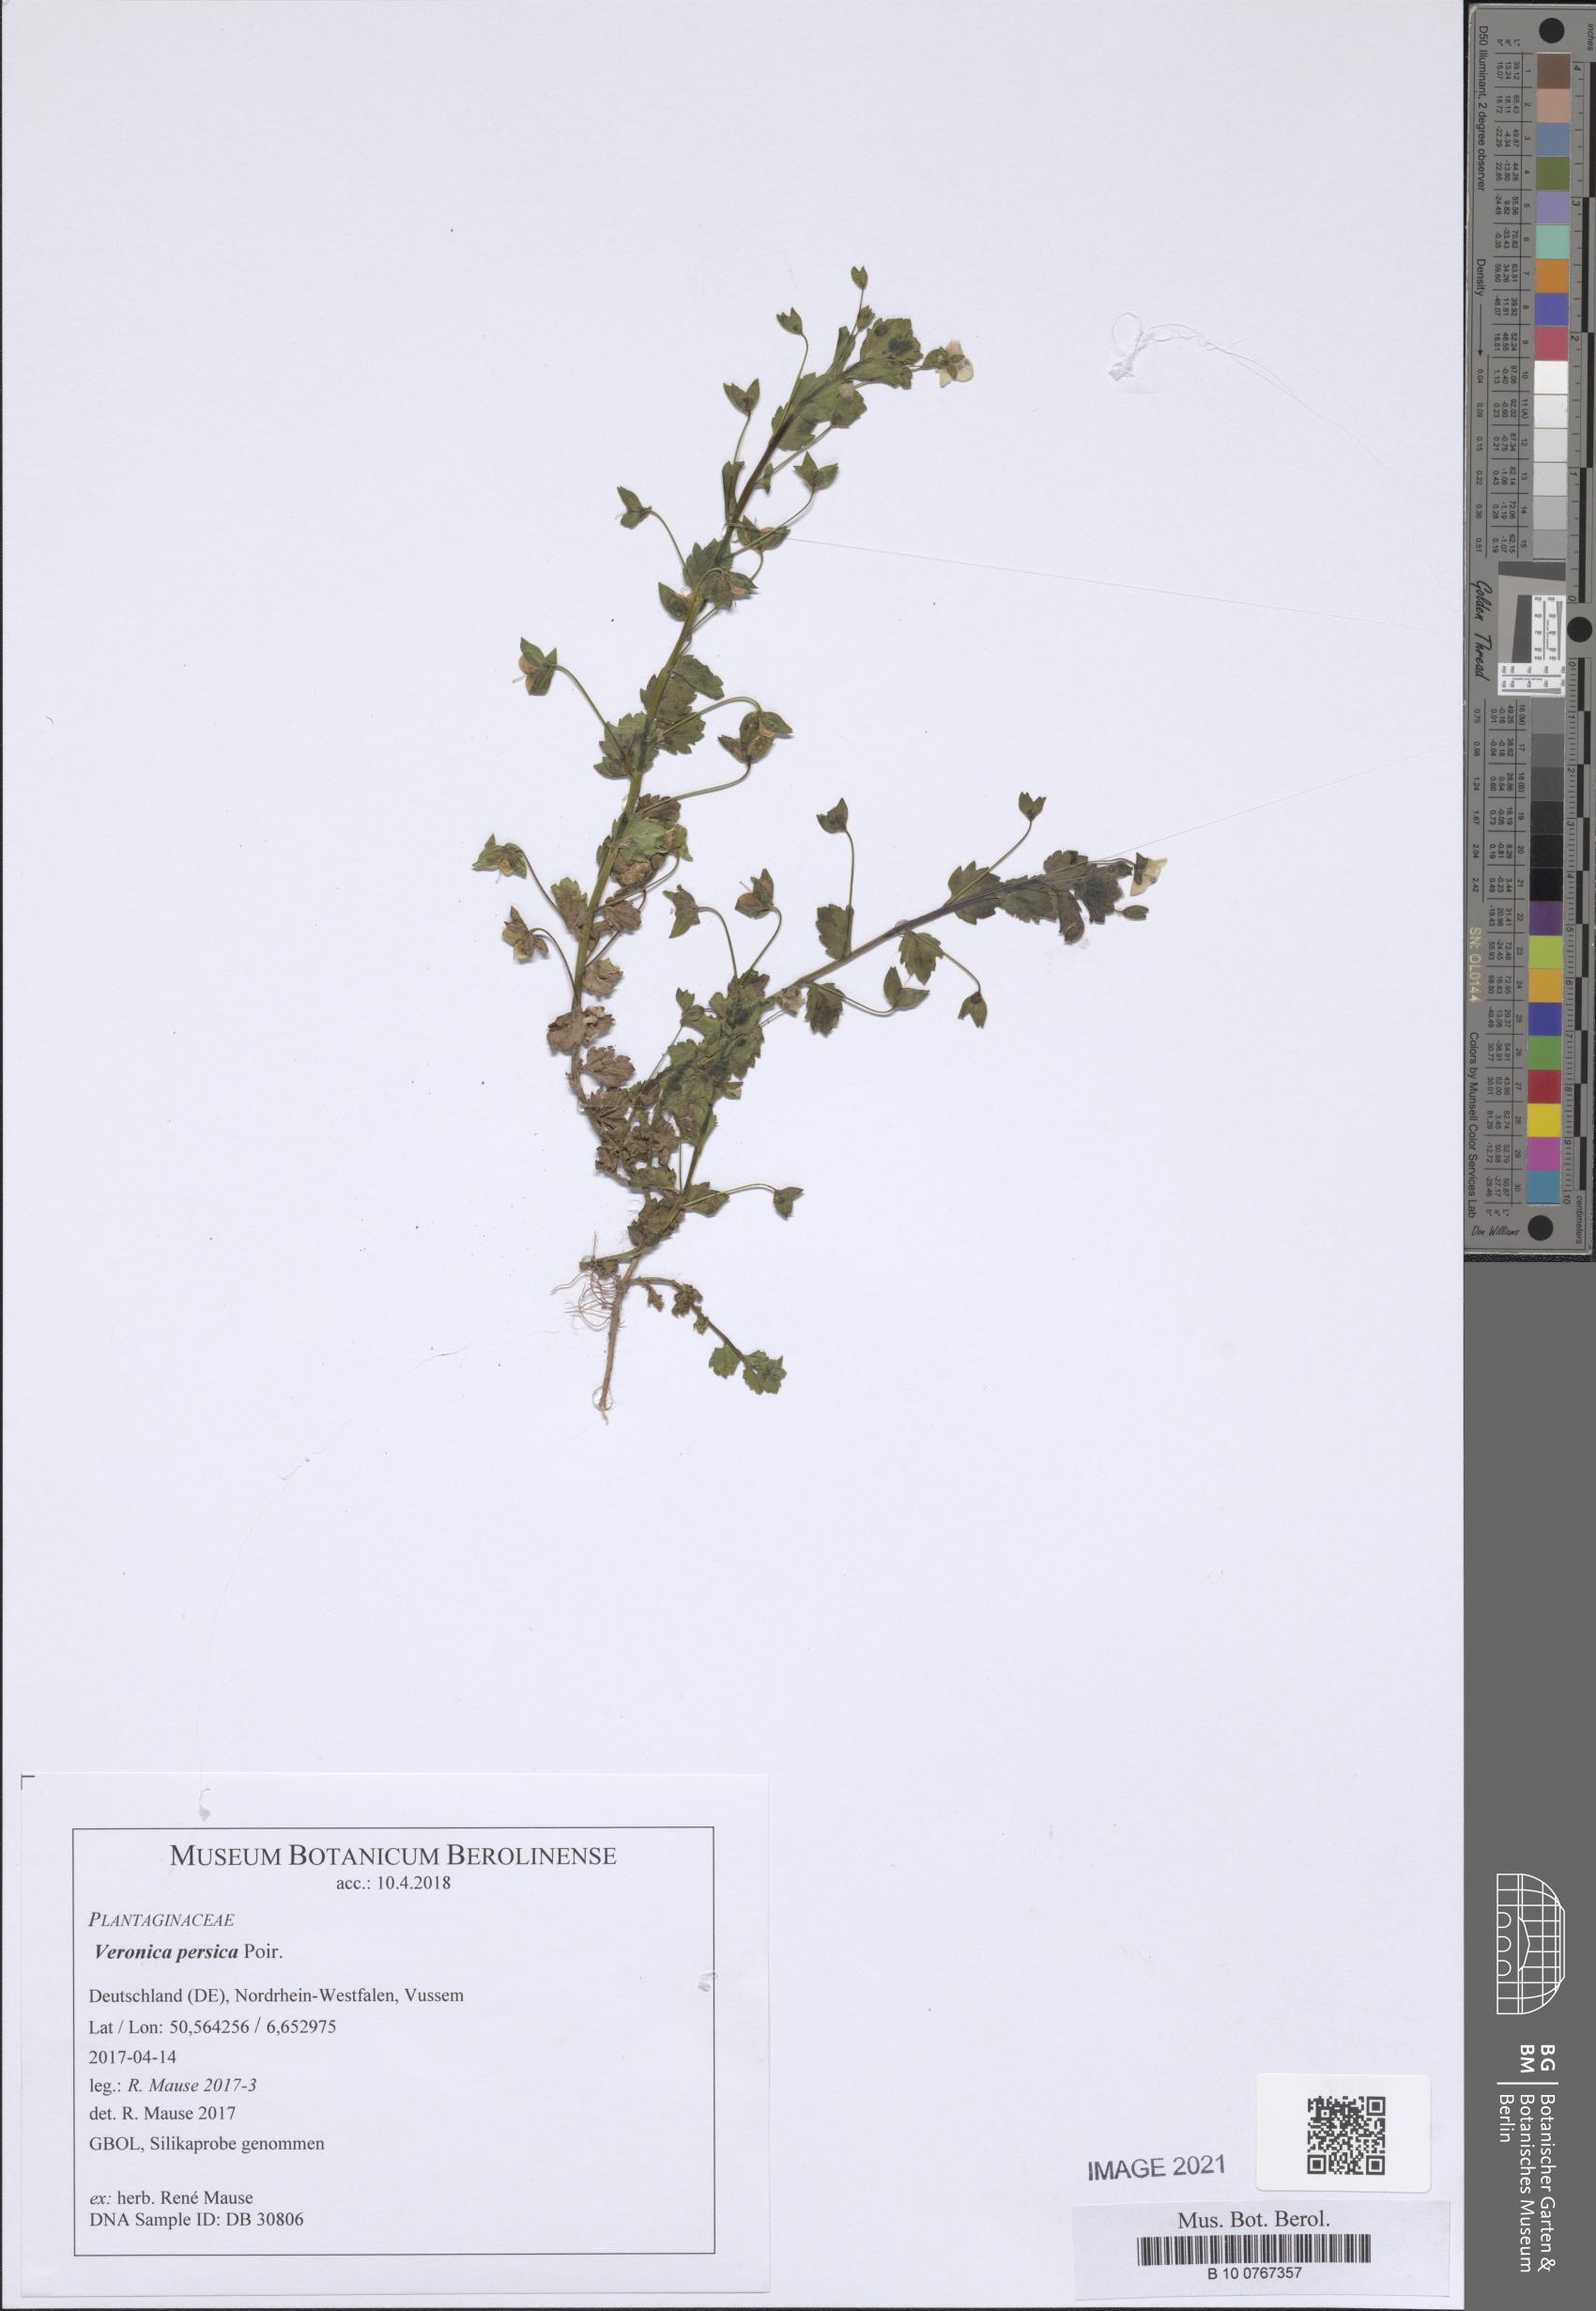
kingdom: Plantae
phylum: Tracheophyta
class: Magnoliopsida
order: Lamiales
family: Plantaginaceae
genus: Veronica
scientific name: Veronica persica
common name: Common field-speedwell
